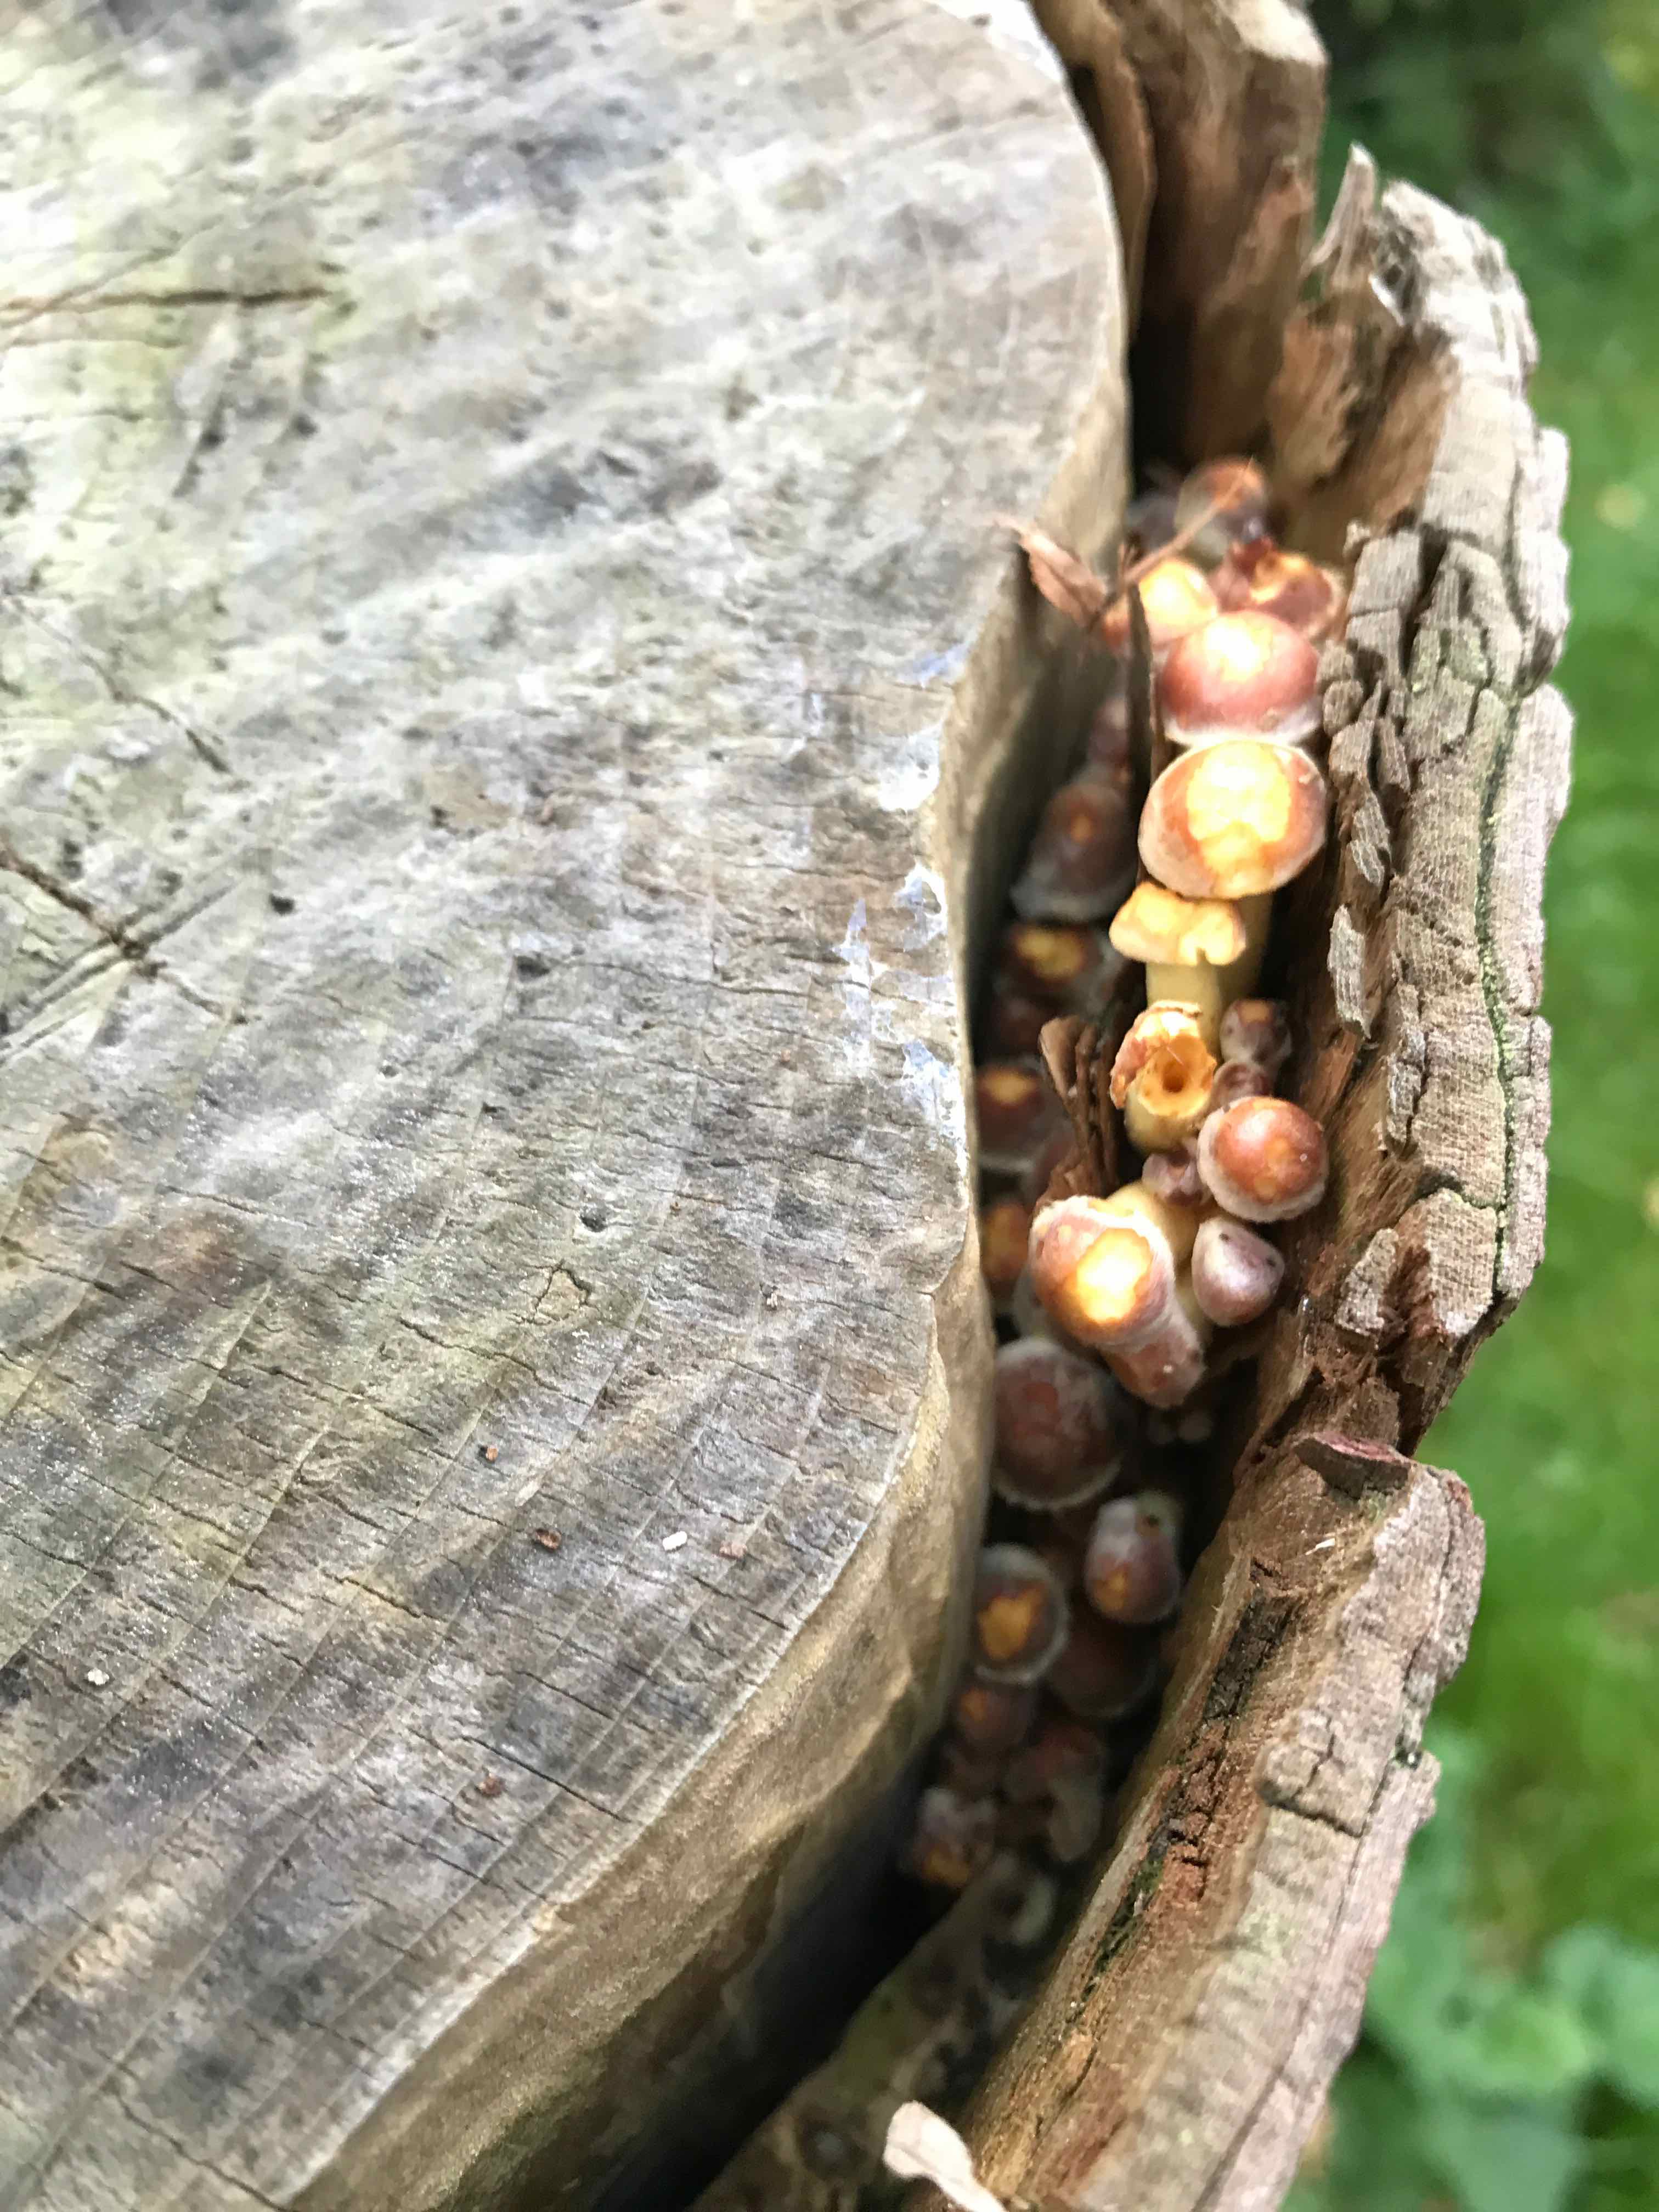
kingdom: Fungi
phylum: Basidiomycota
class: Agaricomycetes
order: Agaricales
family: Strophariaceae
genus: Hypholoma
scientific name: Hypholoma fasciculare
